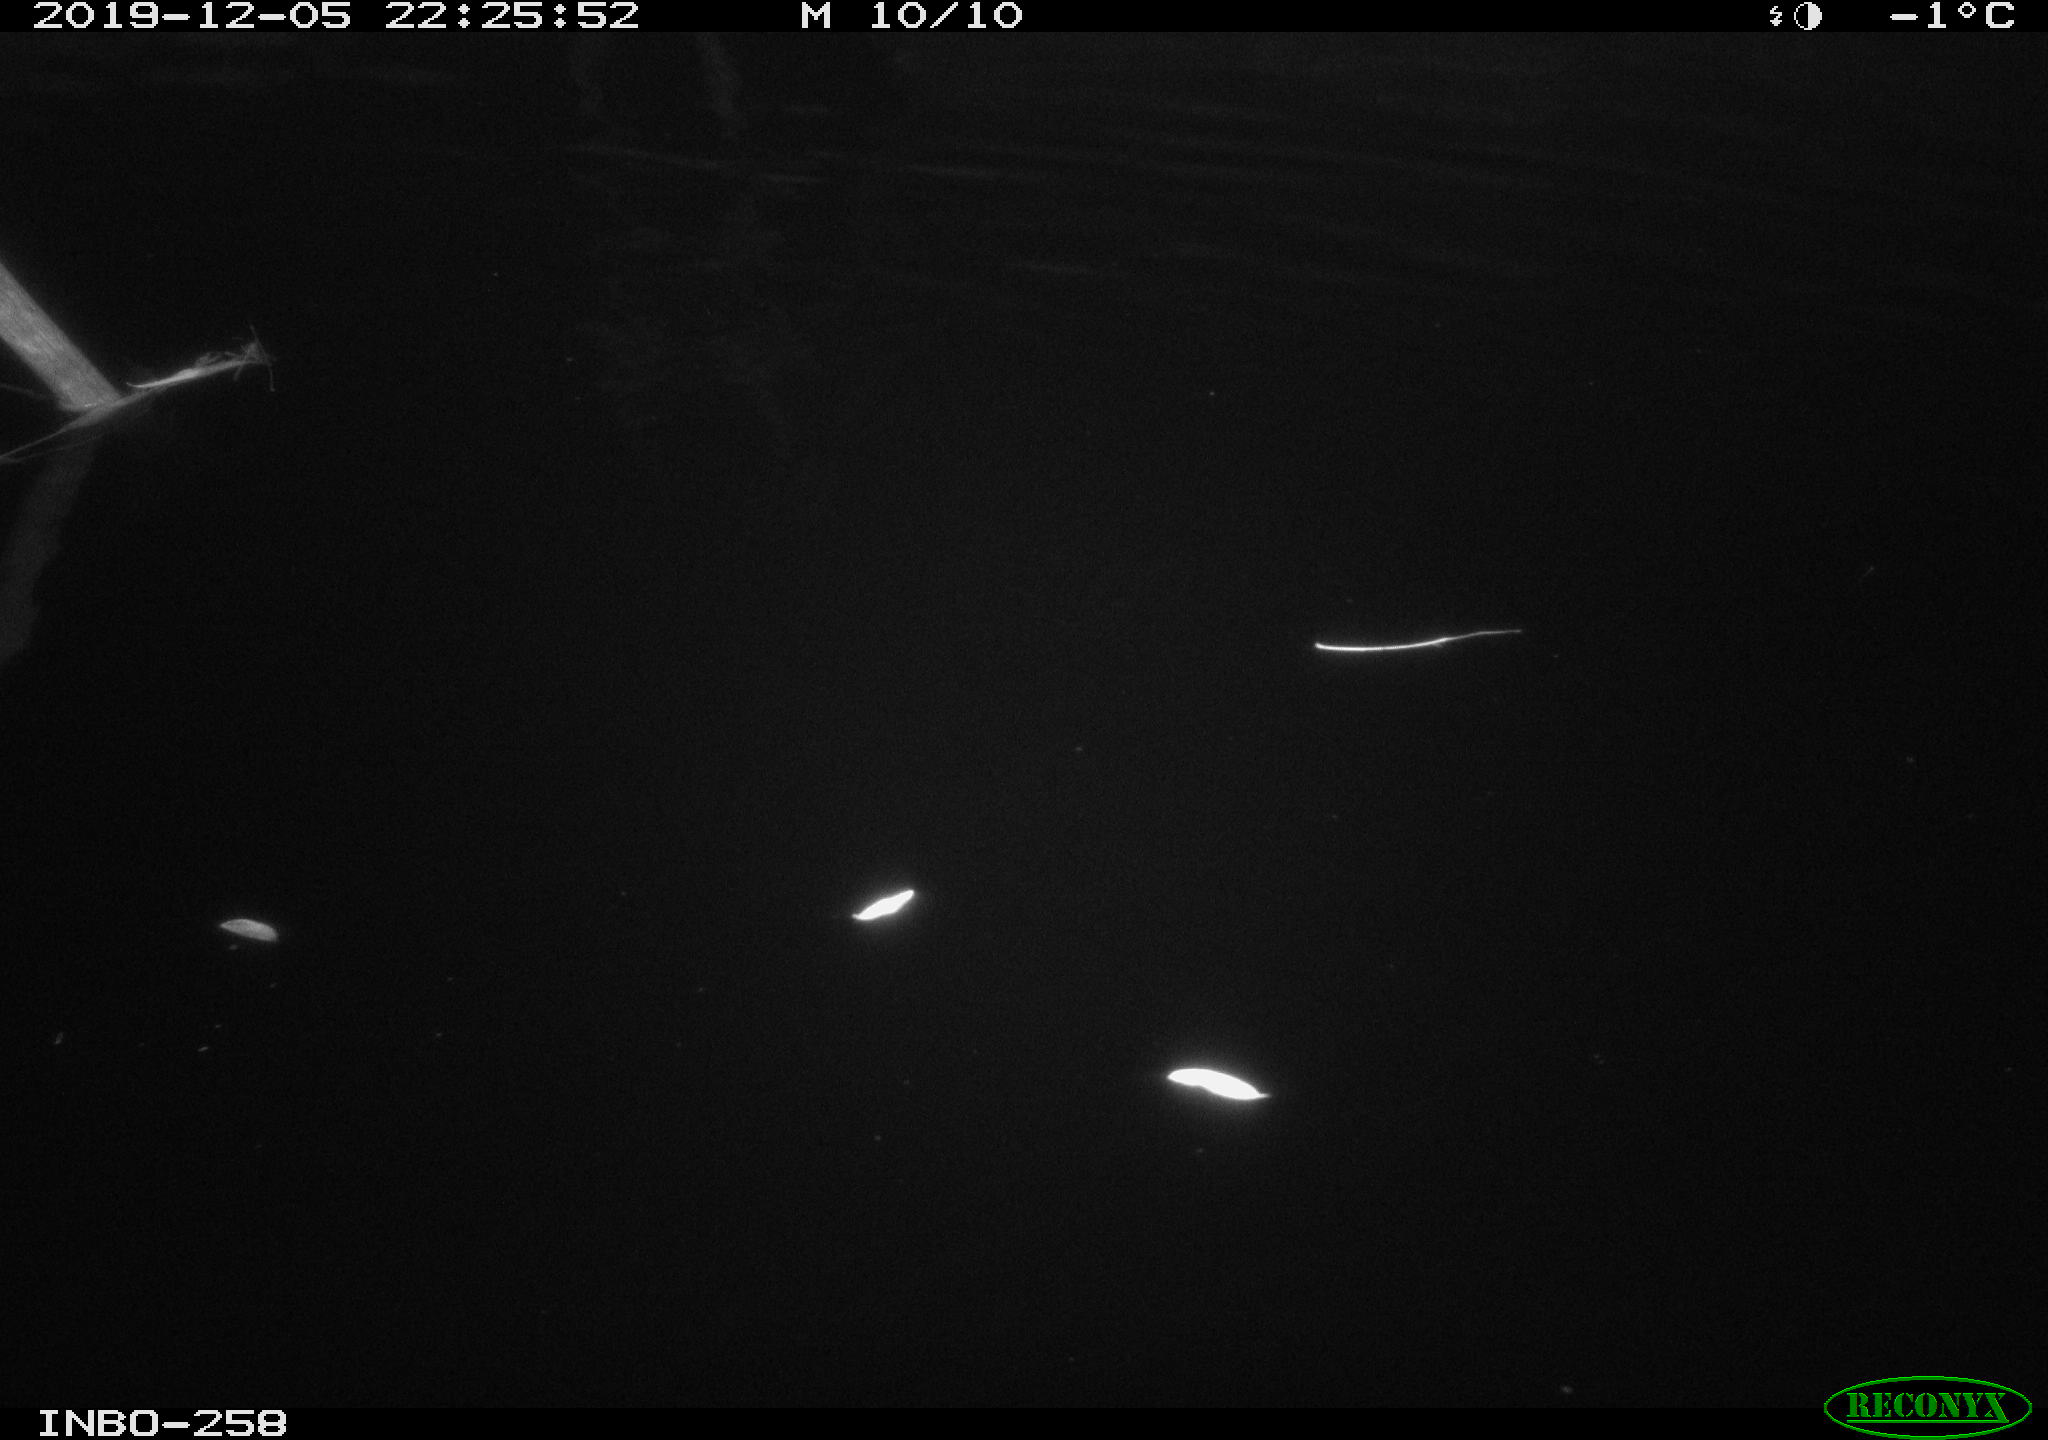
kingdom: Animalia
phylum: Chordata
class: Aves
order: Anseriformes
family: Anatidae
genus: Anas
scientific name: Anas platyrhynchos
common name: Mallard
